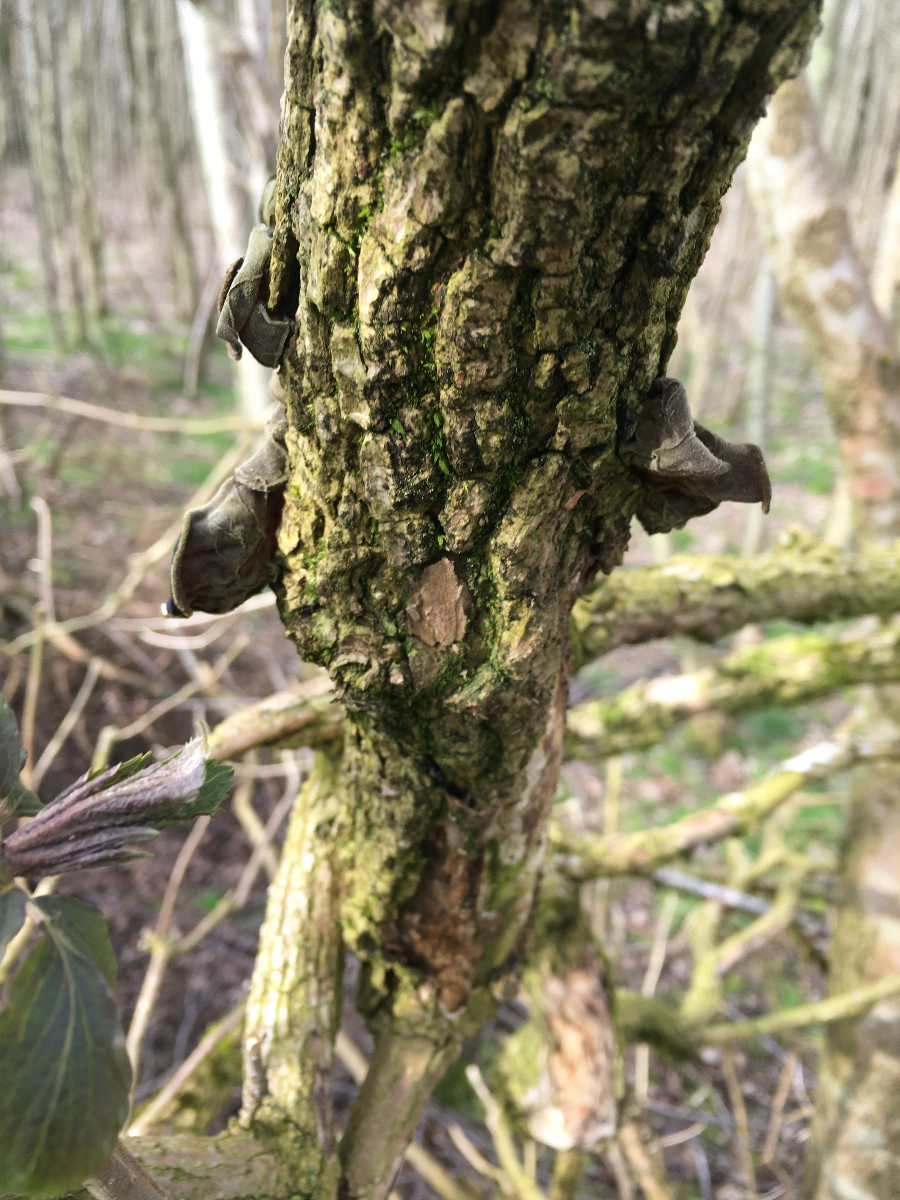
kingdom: Fungi
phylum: Basidiomycota
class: Agaricomycetes
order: Auriculariales
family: Auriculariaceae
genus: Auricularia
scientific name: Auricularia auricula-judae
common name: almindelig judasøre
